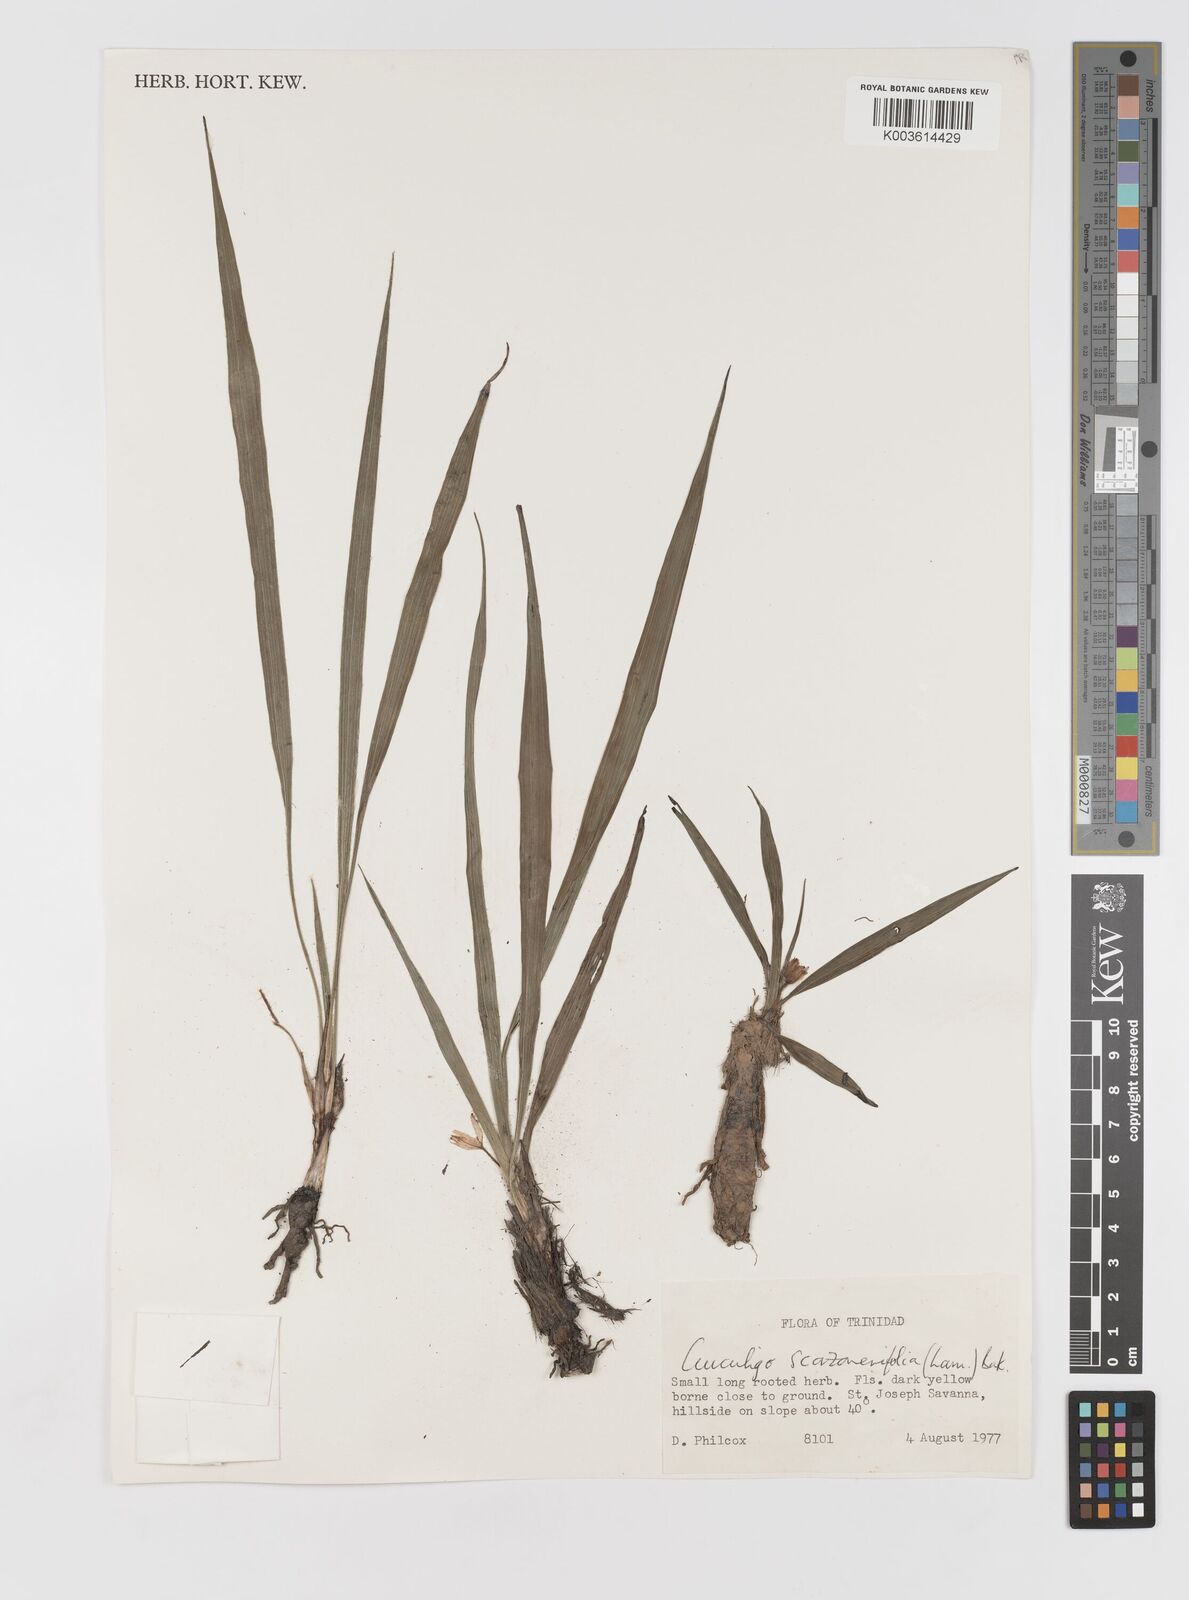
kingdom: Plantae
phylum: Tracheophyta
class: Liliopsida
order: Asparagales
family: Hypoxidaceae
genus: Curculigo
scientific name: Curculigo scorzonerifolia
